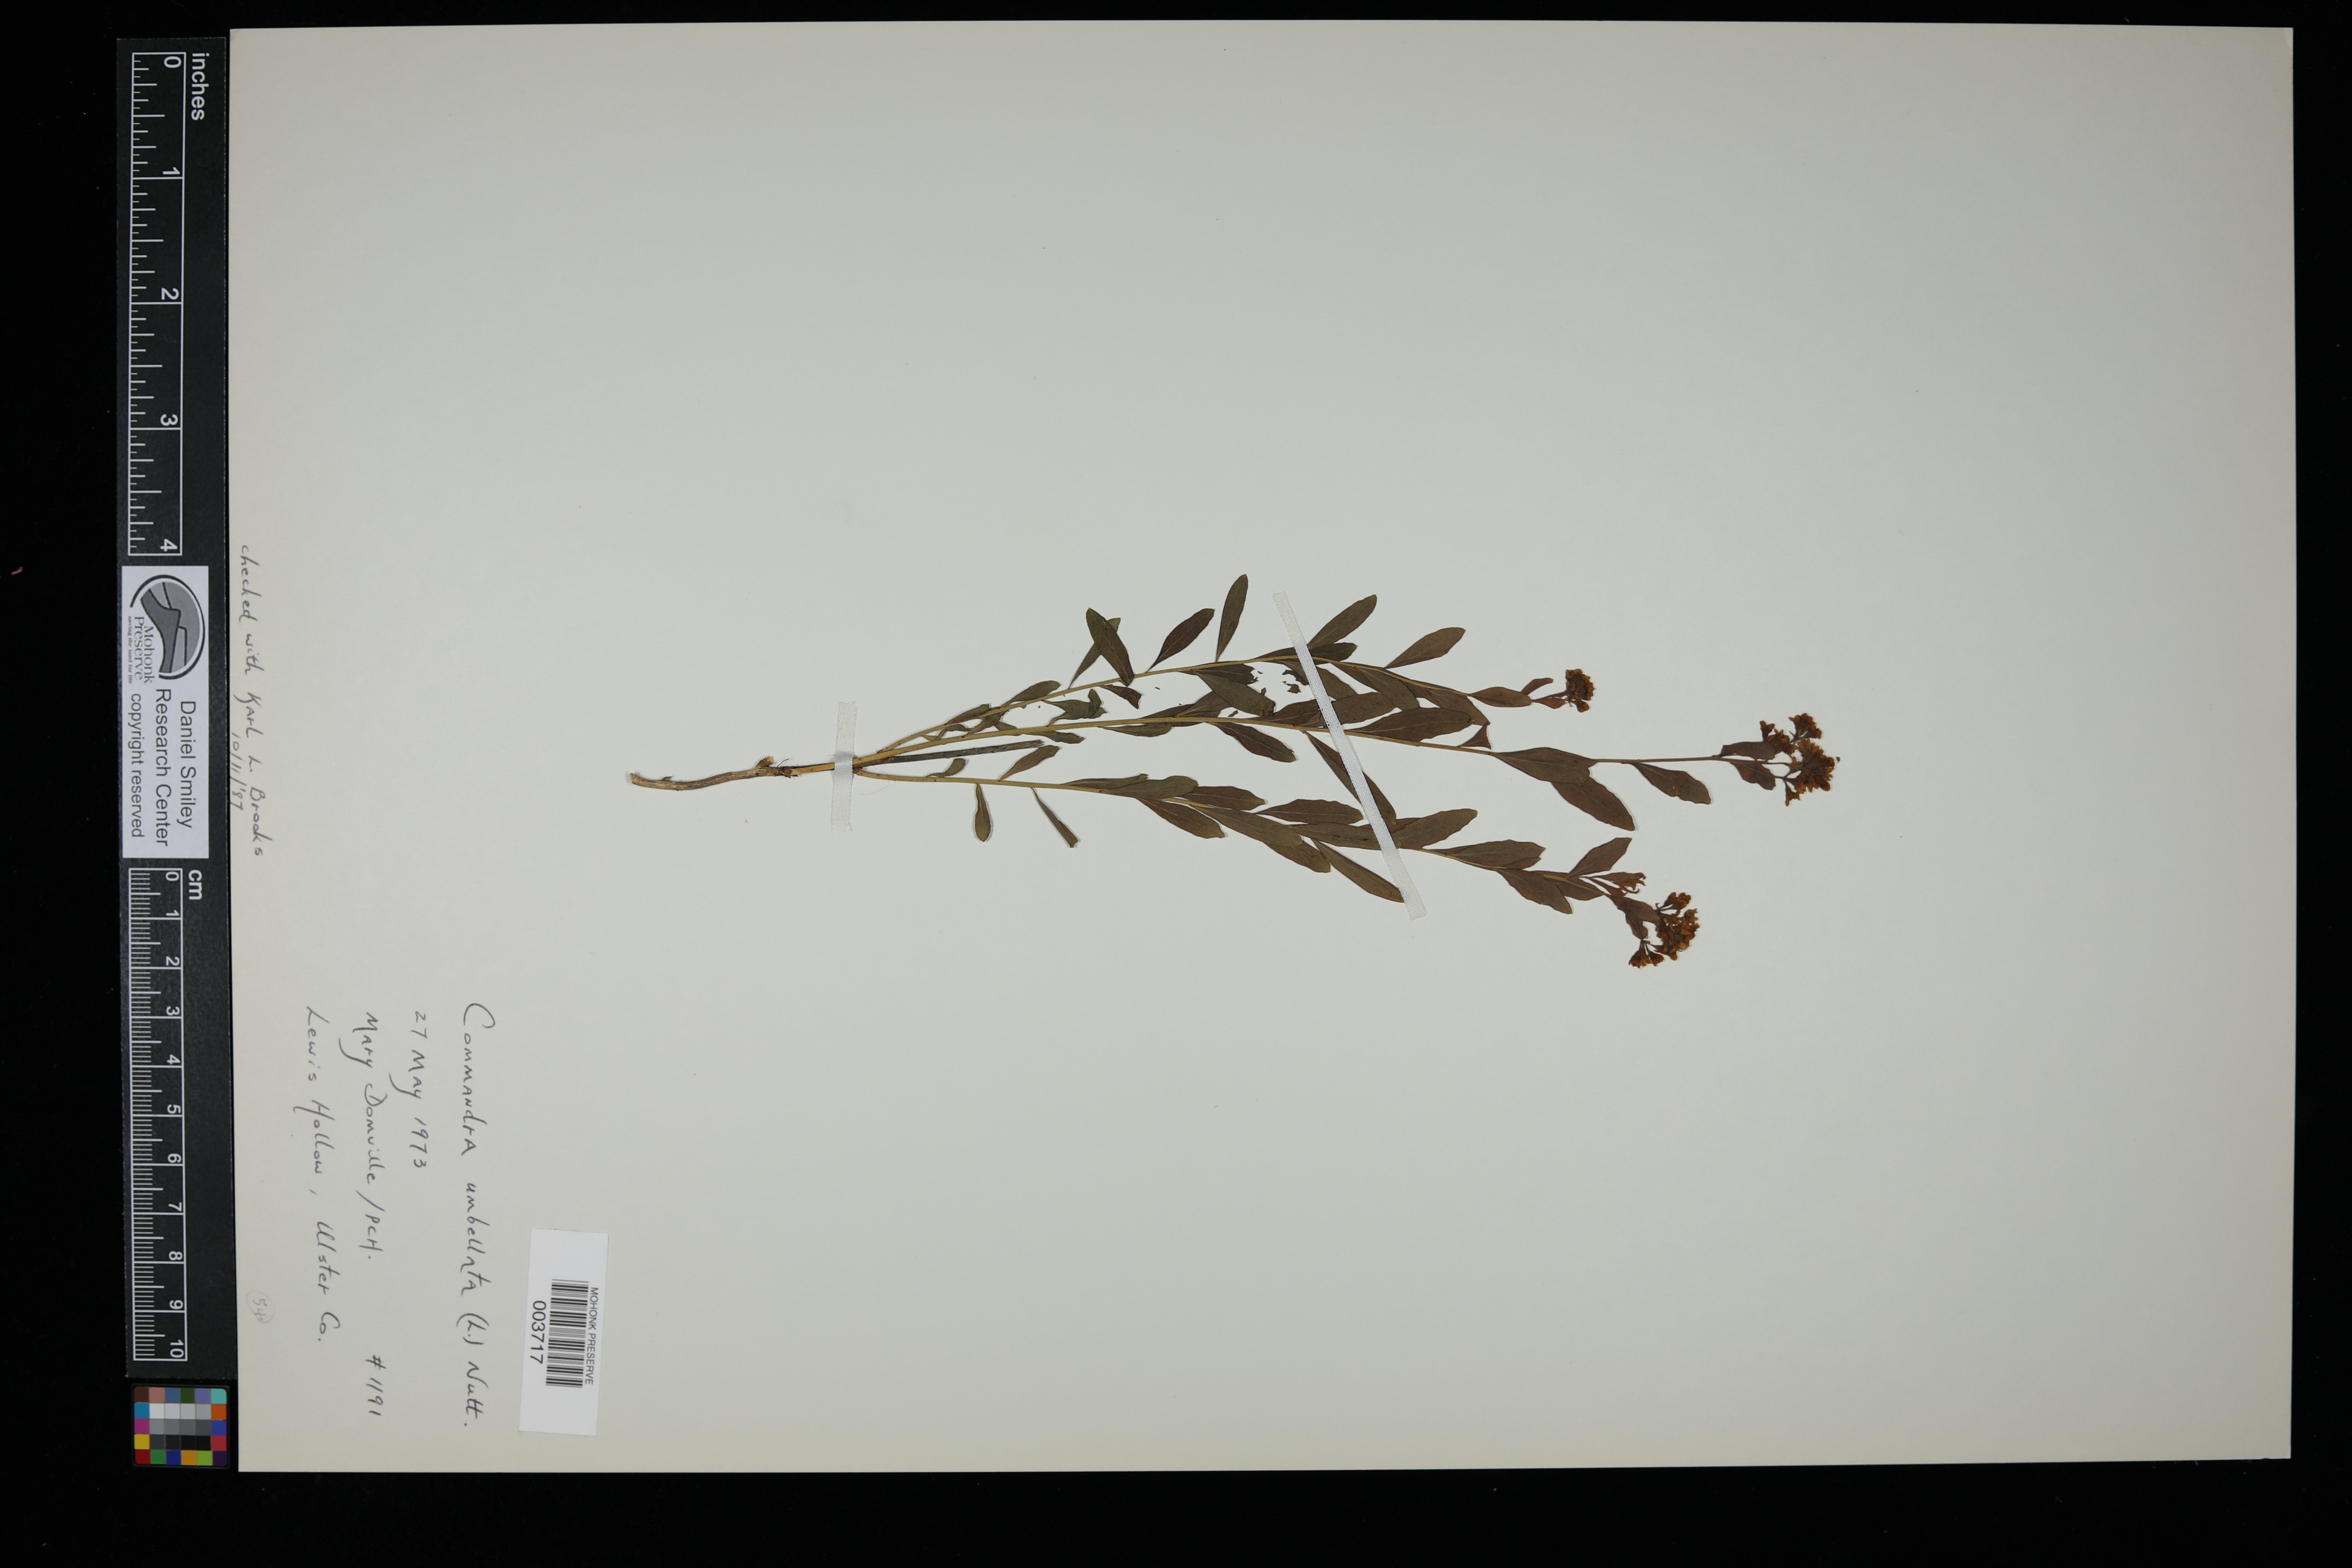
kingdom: Plantae
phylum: Tracheophyta
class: Magnoliopsida
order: Santalales
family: Comandraceae
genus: Comandra
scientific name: Comandra umbellata
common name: Bastard toadflax
